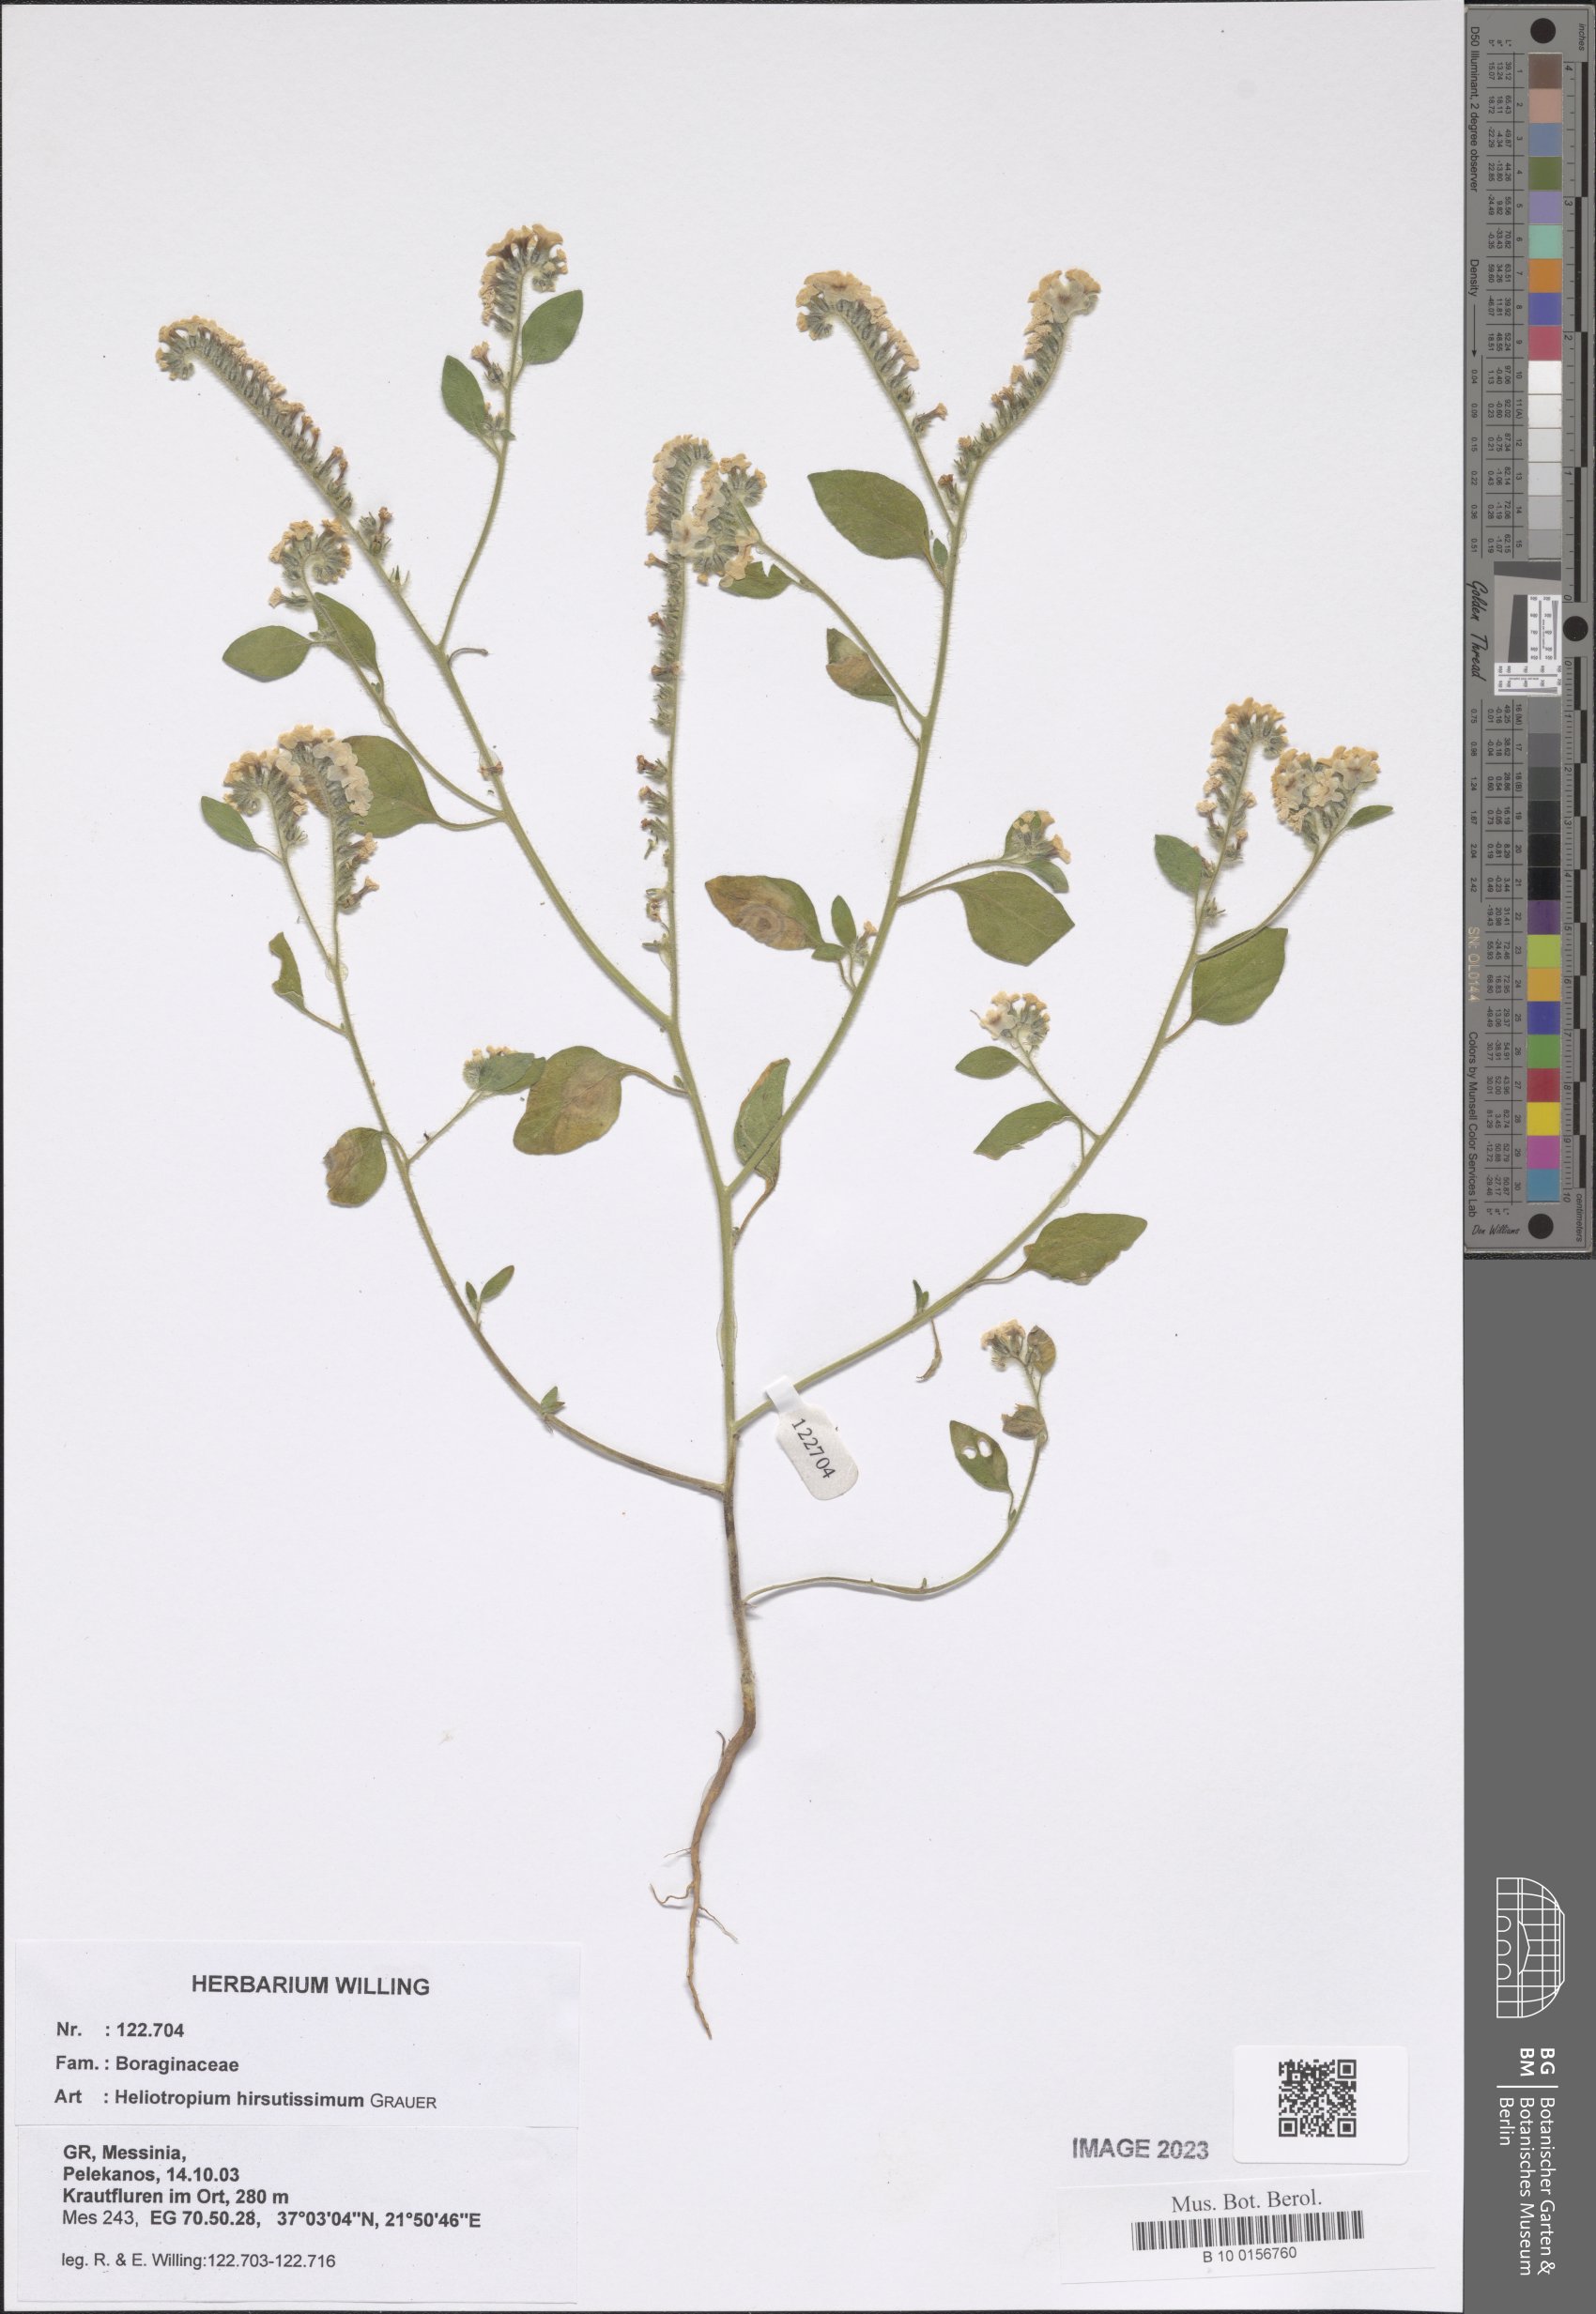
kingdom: Plantae
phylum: Tracheophyta
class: Magnoliopsida
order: Boraginales
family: Heliotropiaceae
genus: Heliotropium
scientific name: Heliotropium hirsutissimum
